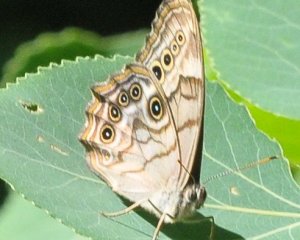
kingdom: Animalia
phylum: Arthropoda
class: Insecta
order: Lepidoptera
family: Nymphalidae
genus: Lethe
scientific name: Lethe anthedon
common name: Northern Pearly-Eye
